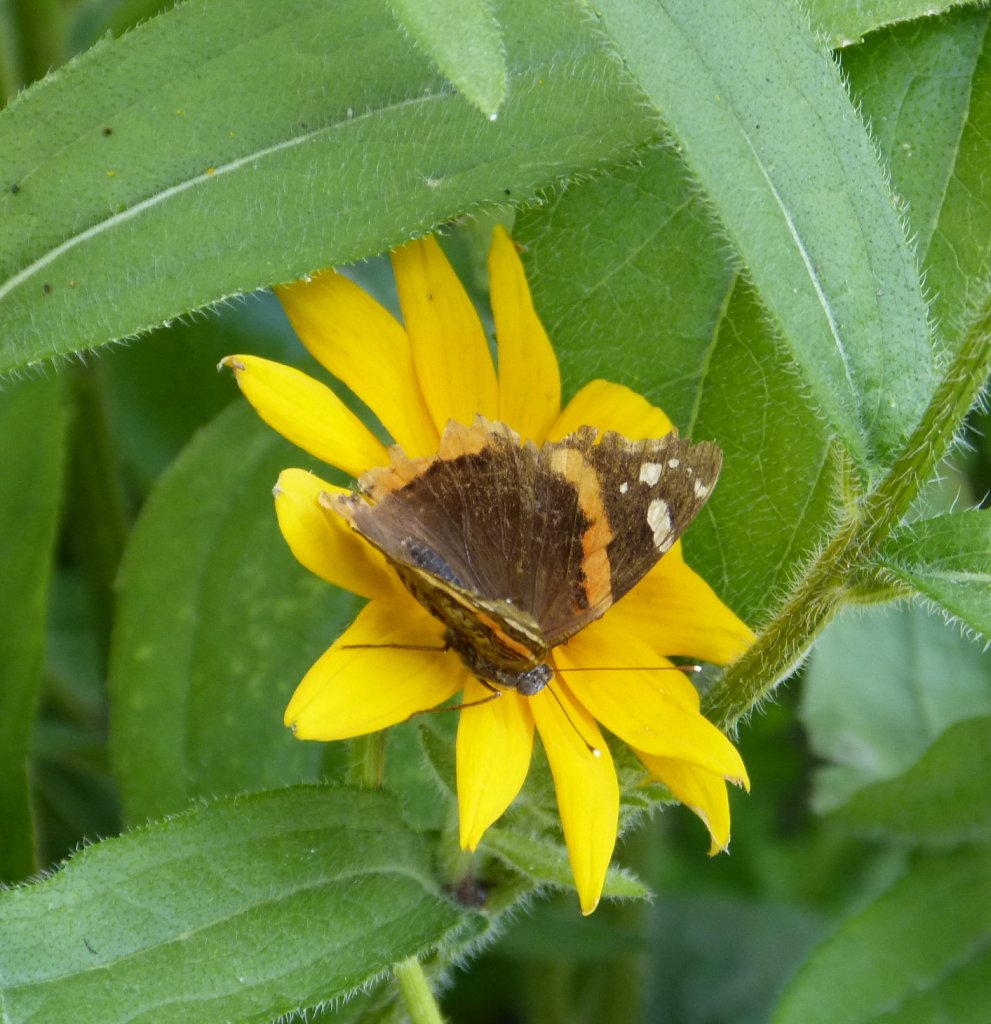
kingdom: Animalia
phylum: Arthropoda
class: Insecta
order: Lepidoptera
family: Nymphalidae
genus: Vanessa
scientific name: Vanessa atalanta
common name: Red Admiral
